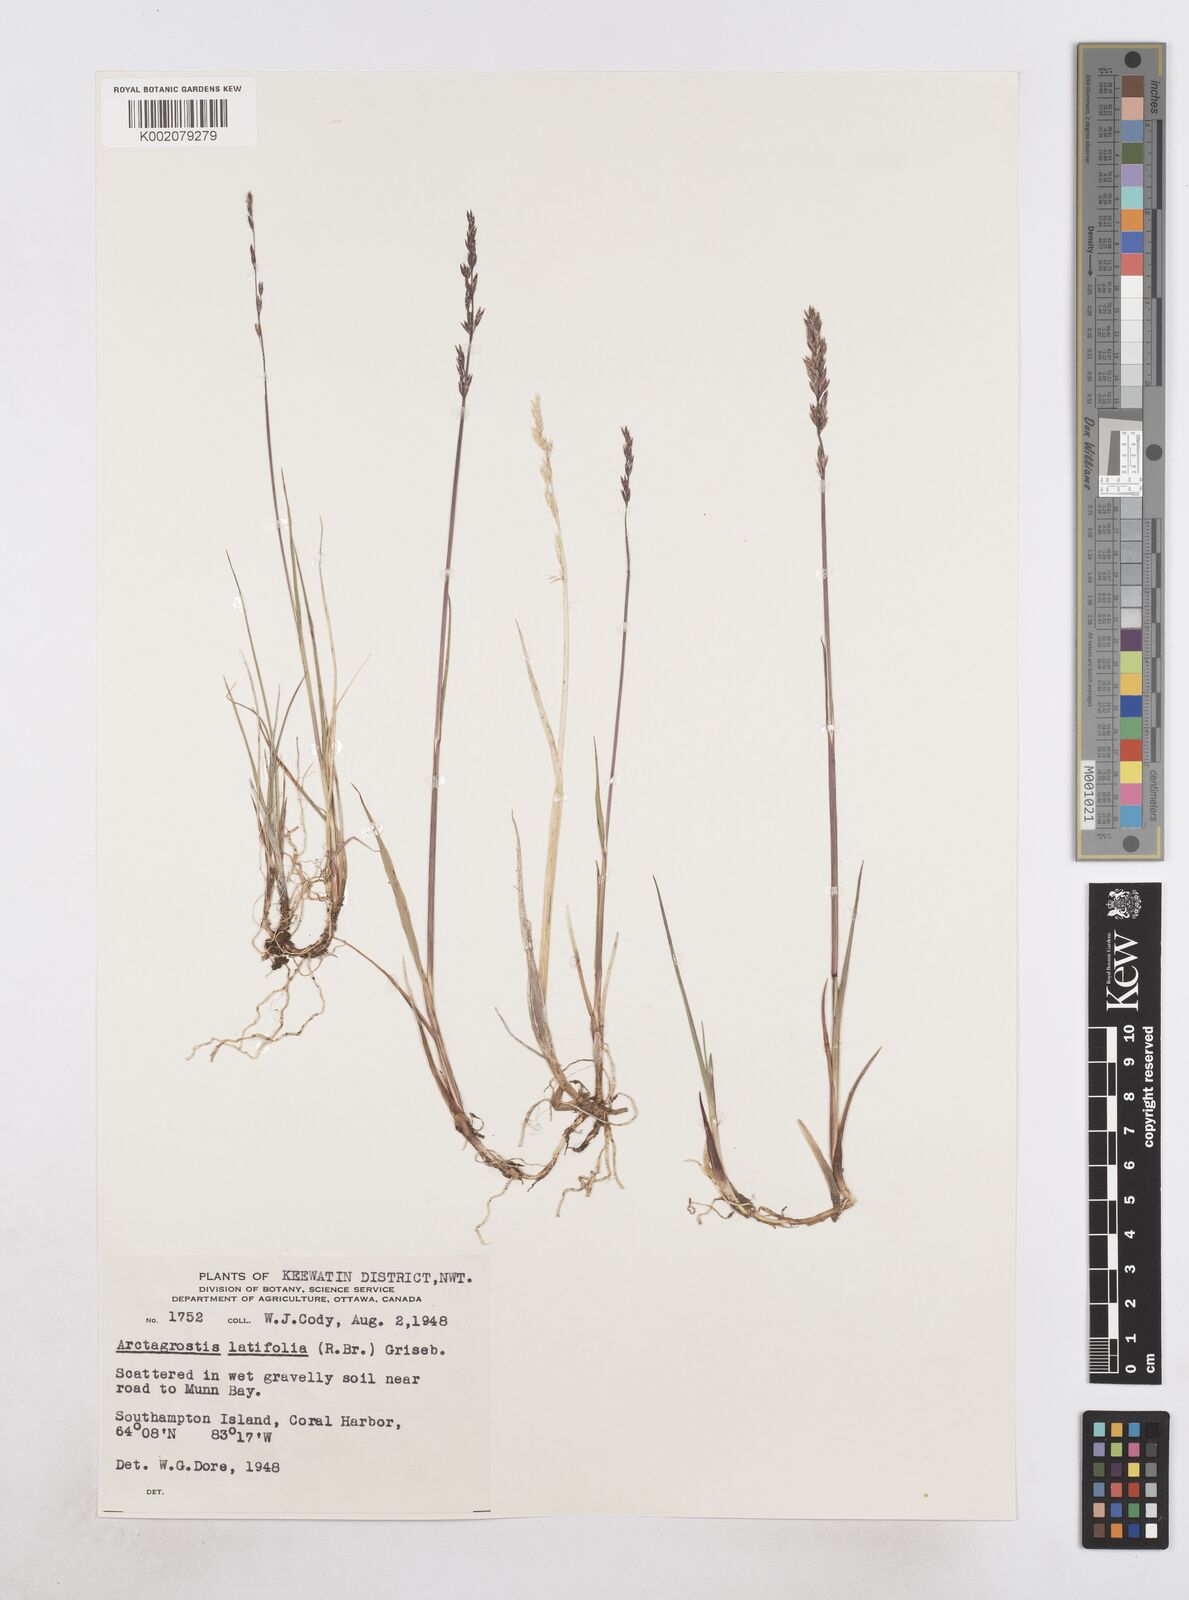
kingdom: Plantae
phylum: Tracheophyta
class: Liliopsida
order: Poales
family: Poaceae
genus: Arctagrostis
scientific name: Arctagrostis latifolia
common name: Arctic grass
